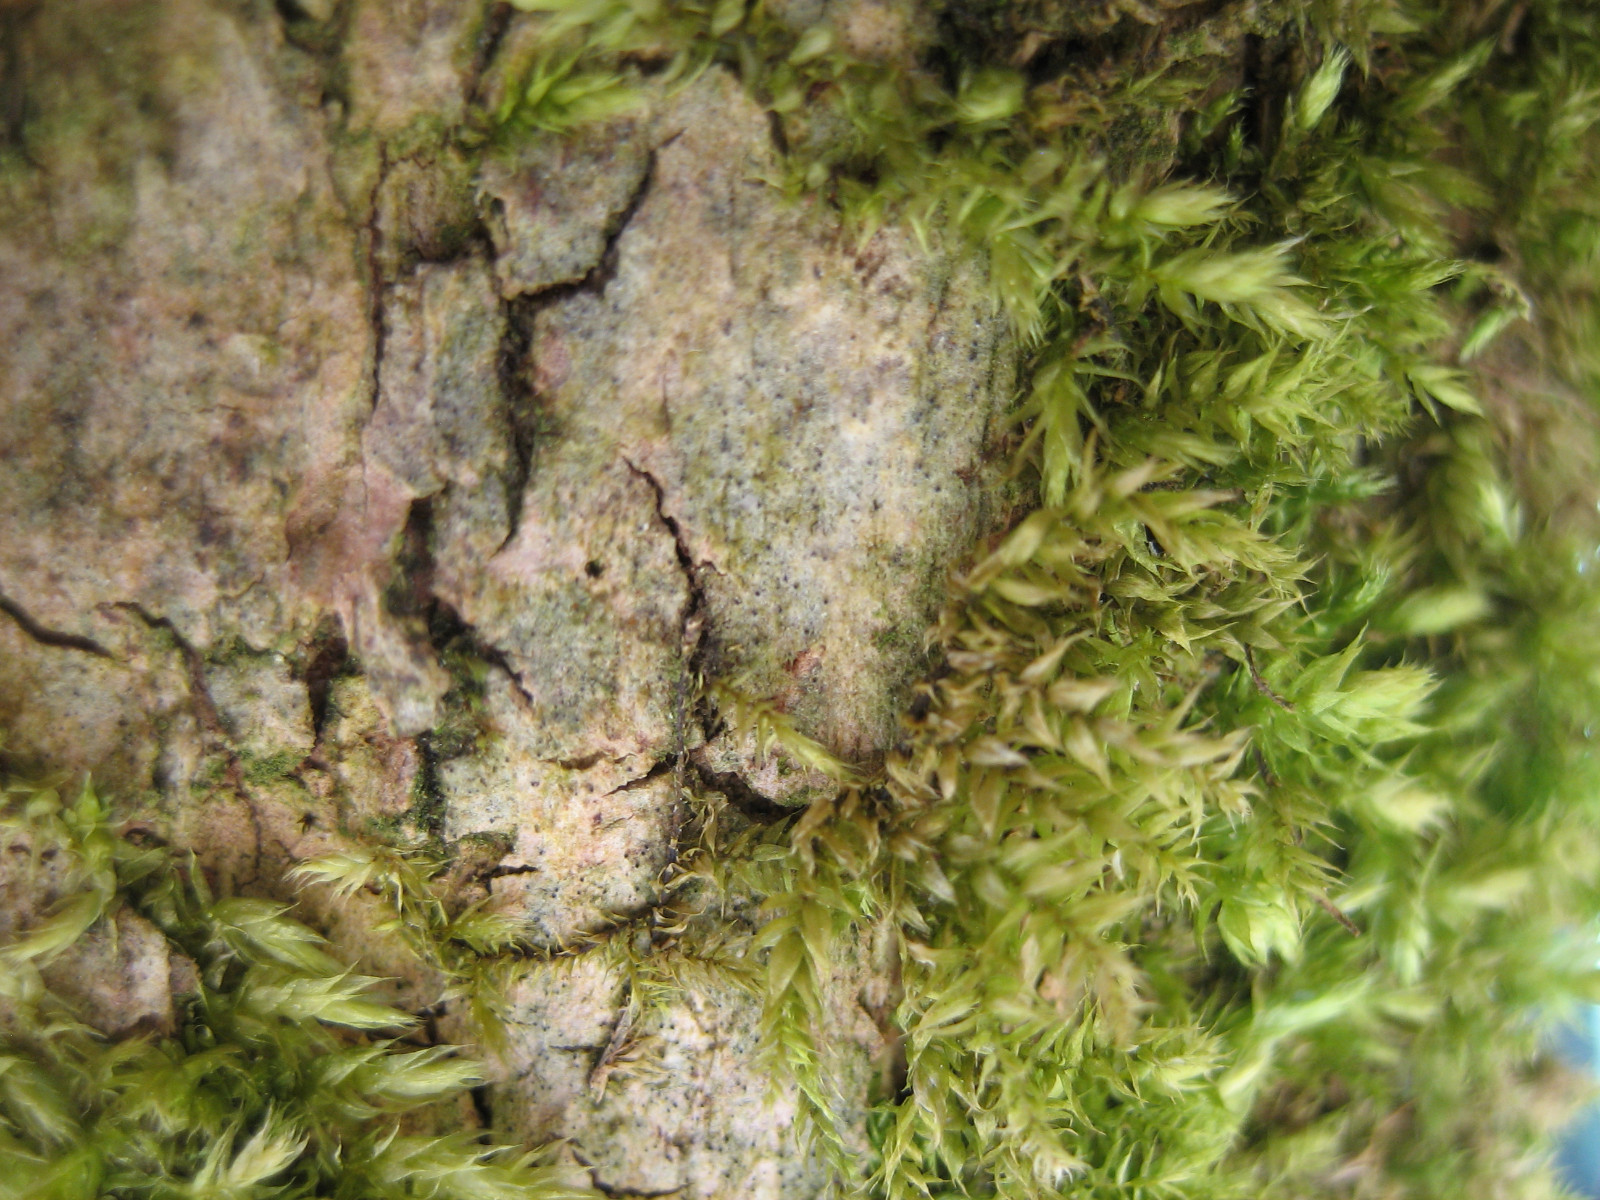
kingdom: Fungi
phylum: Ascomycota
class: Dothideomycetes
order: Monoblastiales
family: Monoblastiaceae
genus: Anisomeridium
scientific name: Anisomeridium polypori
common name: sprække-punktlav
